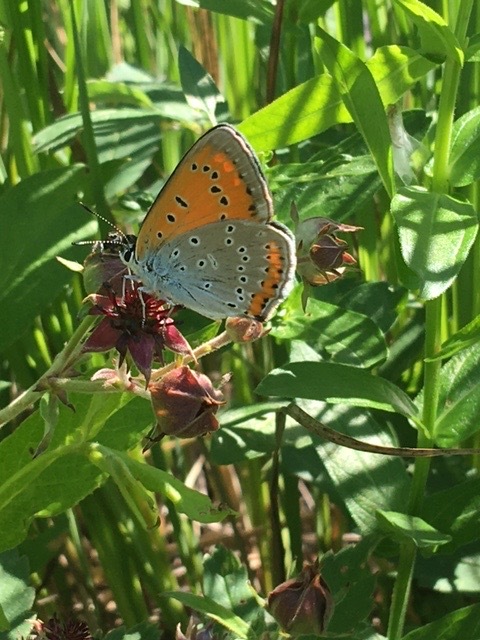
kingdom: Animalia
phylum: Arthropoda
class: Insecta
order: Lepidoptera
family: Lycaenidae
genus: Lycaena
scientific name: Lycaena dispar
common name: Large copper
